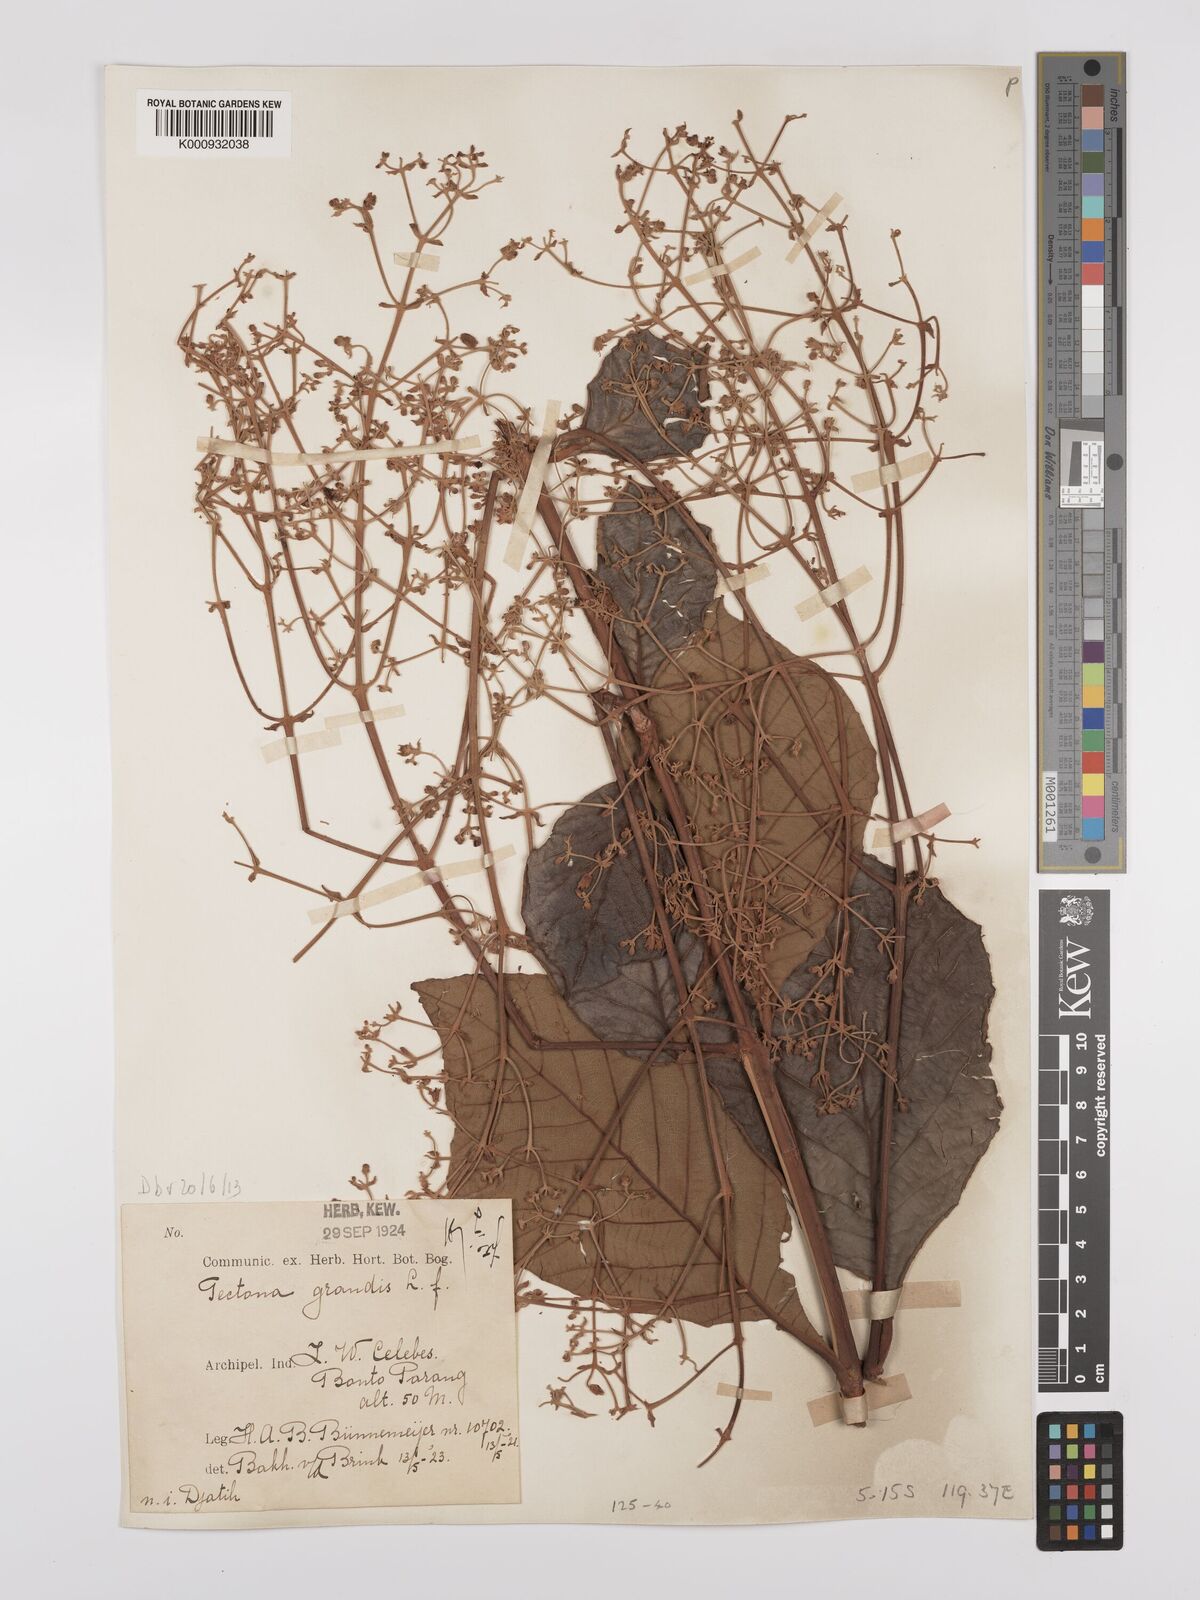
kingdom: Plantae
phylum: Tracheophyta
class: Magnoliopsida
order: Lamiales
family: Lamiaceae
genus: Tectona
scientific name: Tectona grandis
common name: Teak
